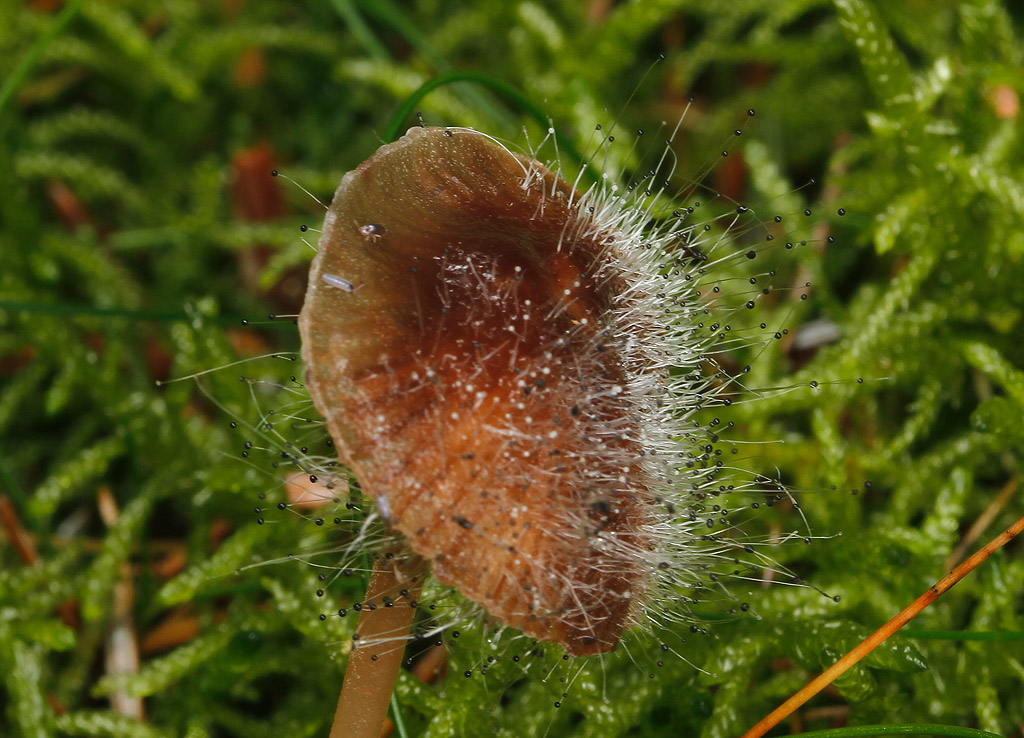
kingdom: Fungi
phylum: Mucoromycota
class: Mucoromycetes
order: Mucorales
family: Phycomycetaceae
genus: Spinellus
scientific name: Spinellus fusiger
